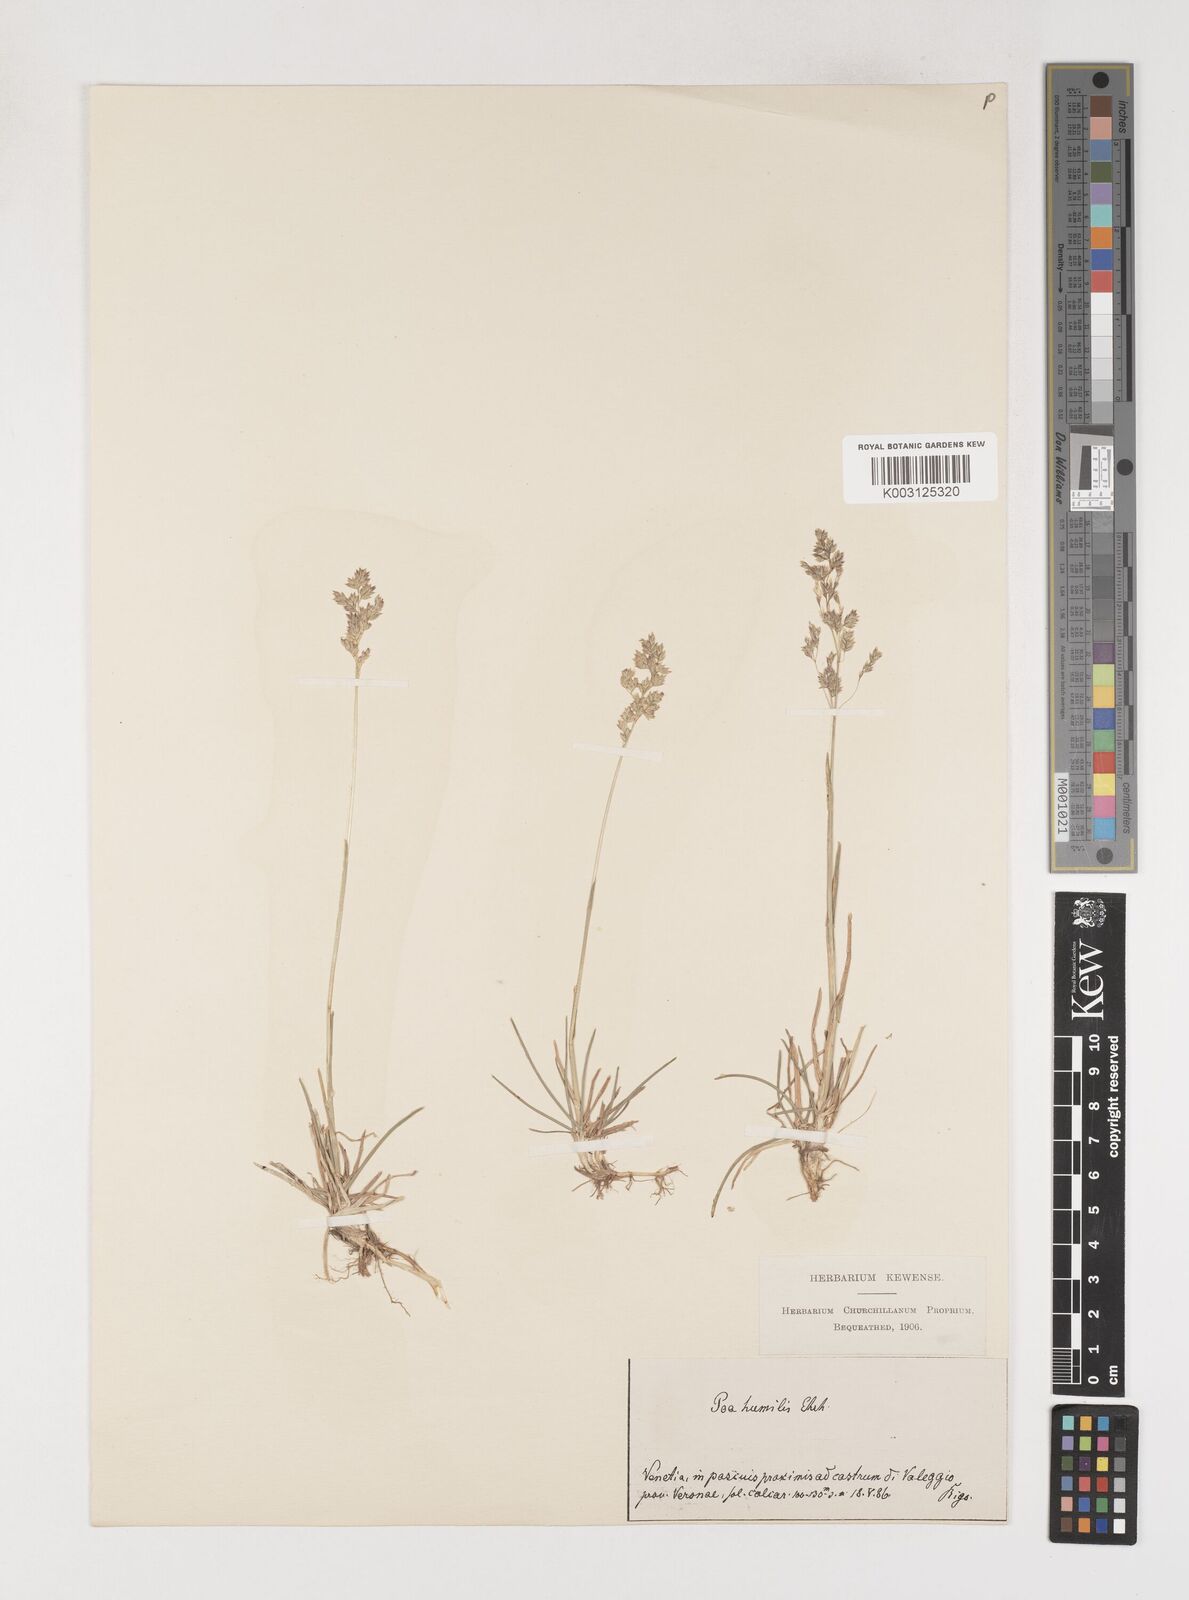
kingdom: Plantae
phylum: Tracheophyta
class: Liliopsida
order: Poales
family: Poaceae
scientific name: Poaceae
